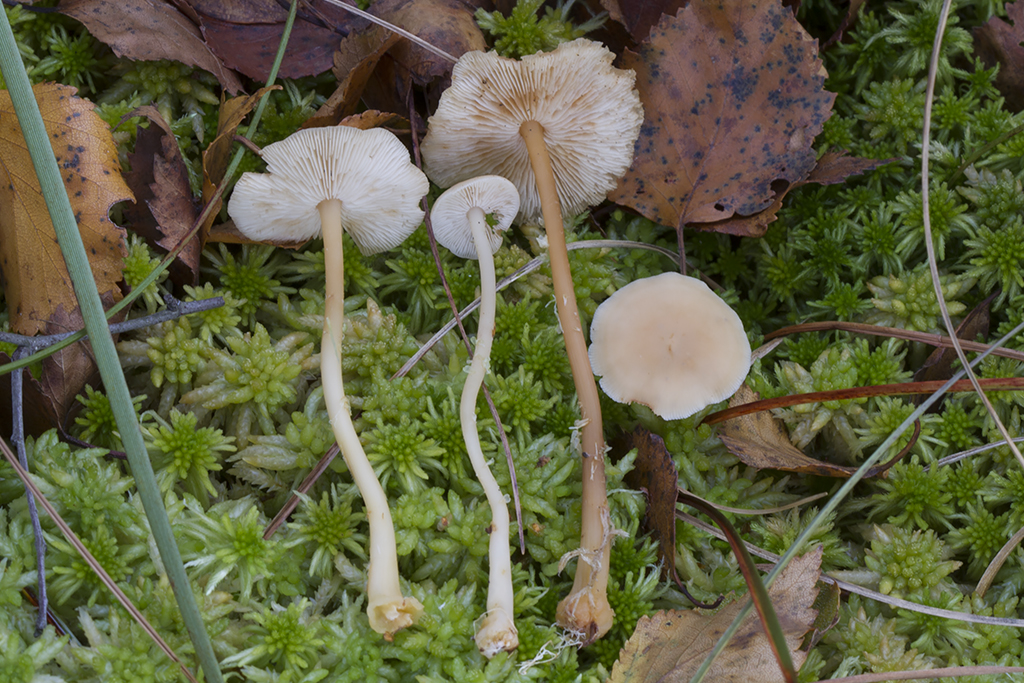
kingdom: Fungi
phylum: Basidiomycota
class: Agaricomycetes
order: Agaricales
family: Omphalotaceae
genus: Gymnopus
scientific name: Gymnopus aquosus
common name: bleg fladhat
